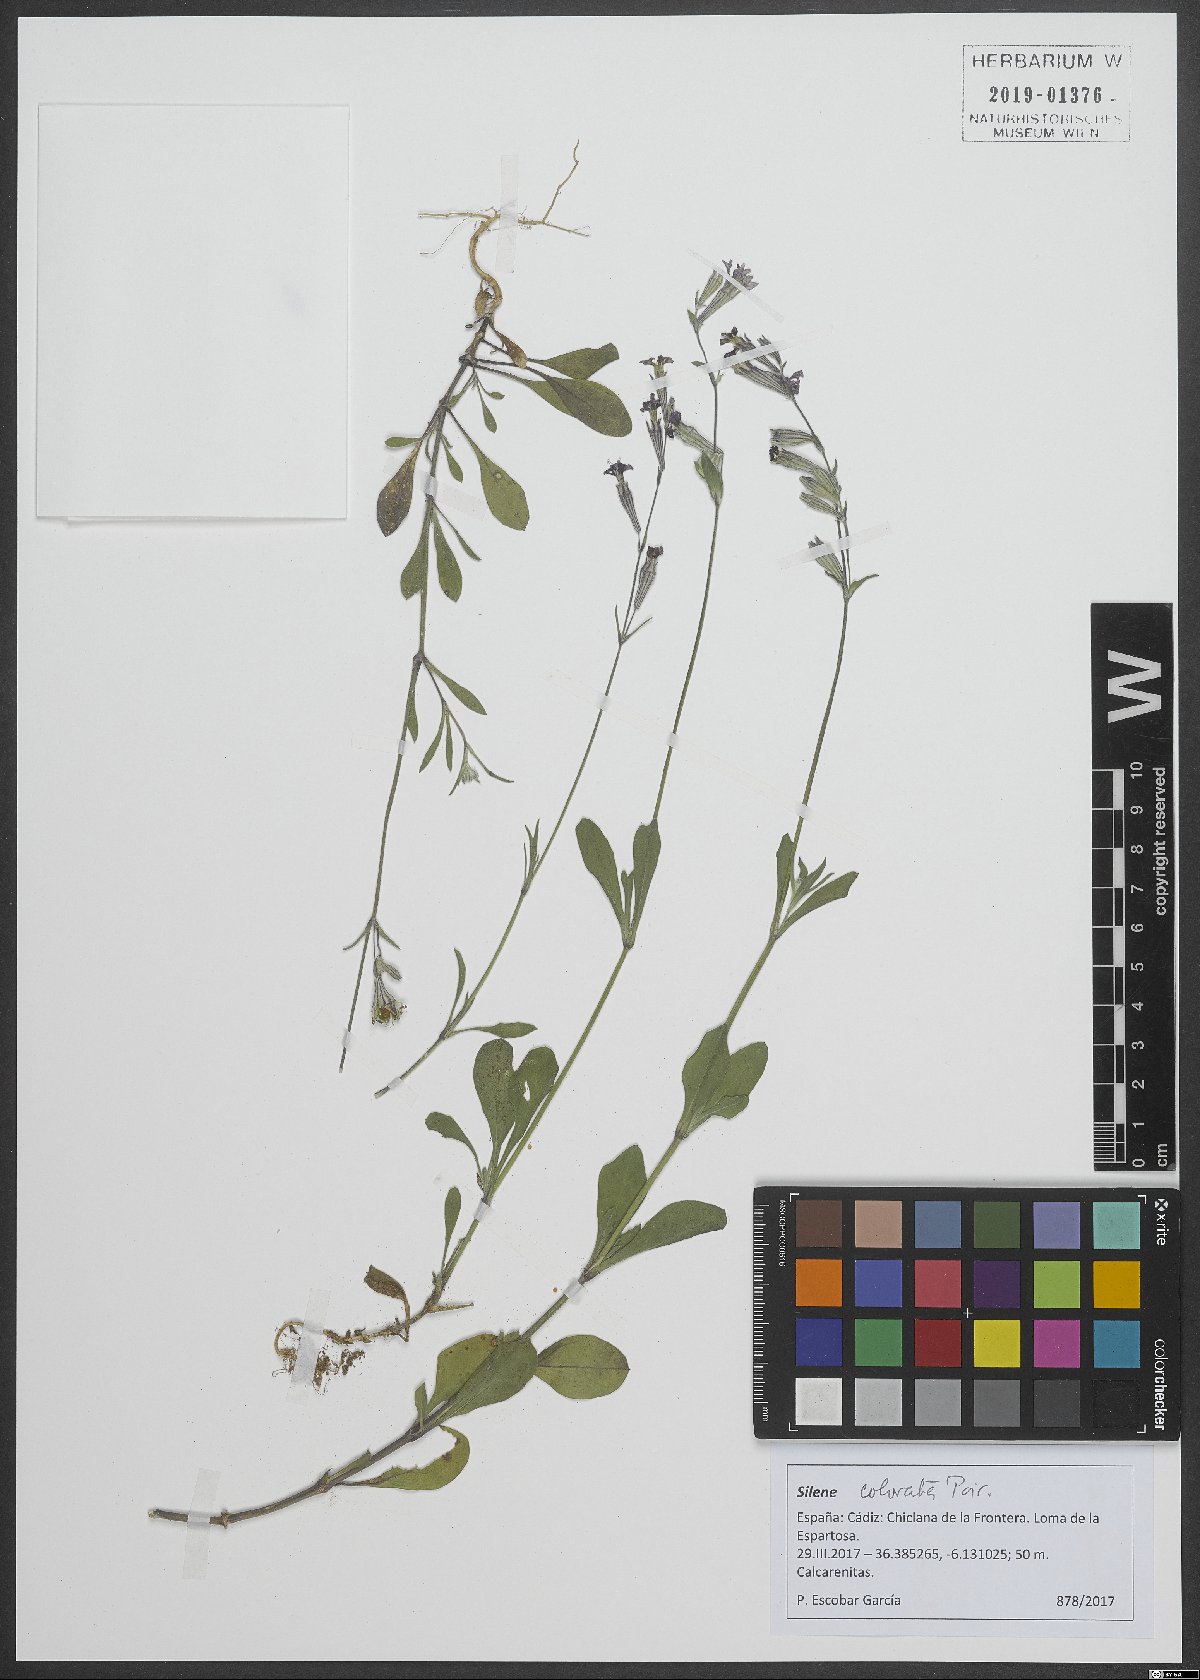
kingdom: Plantae
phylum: Tracheophyta
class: Magnoliopsida
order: Caryophyllales
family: Caryophyllaceae
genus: Silene
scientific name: Silene colorata
